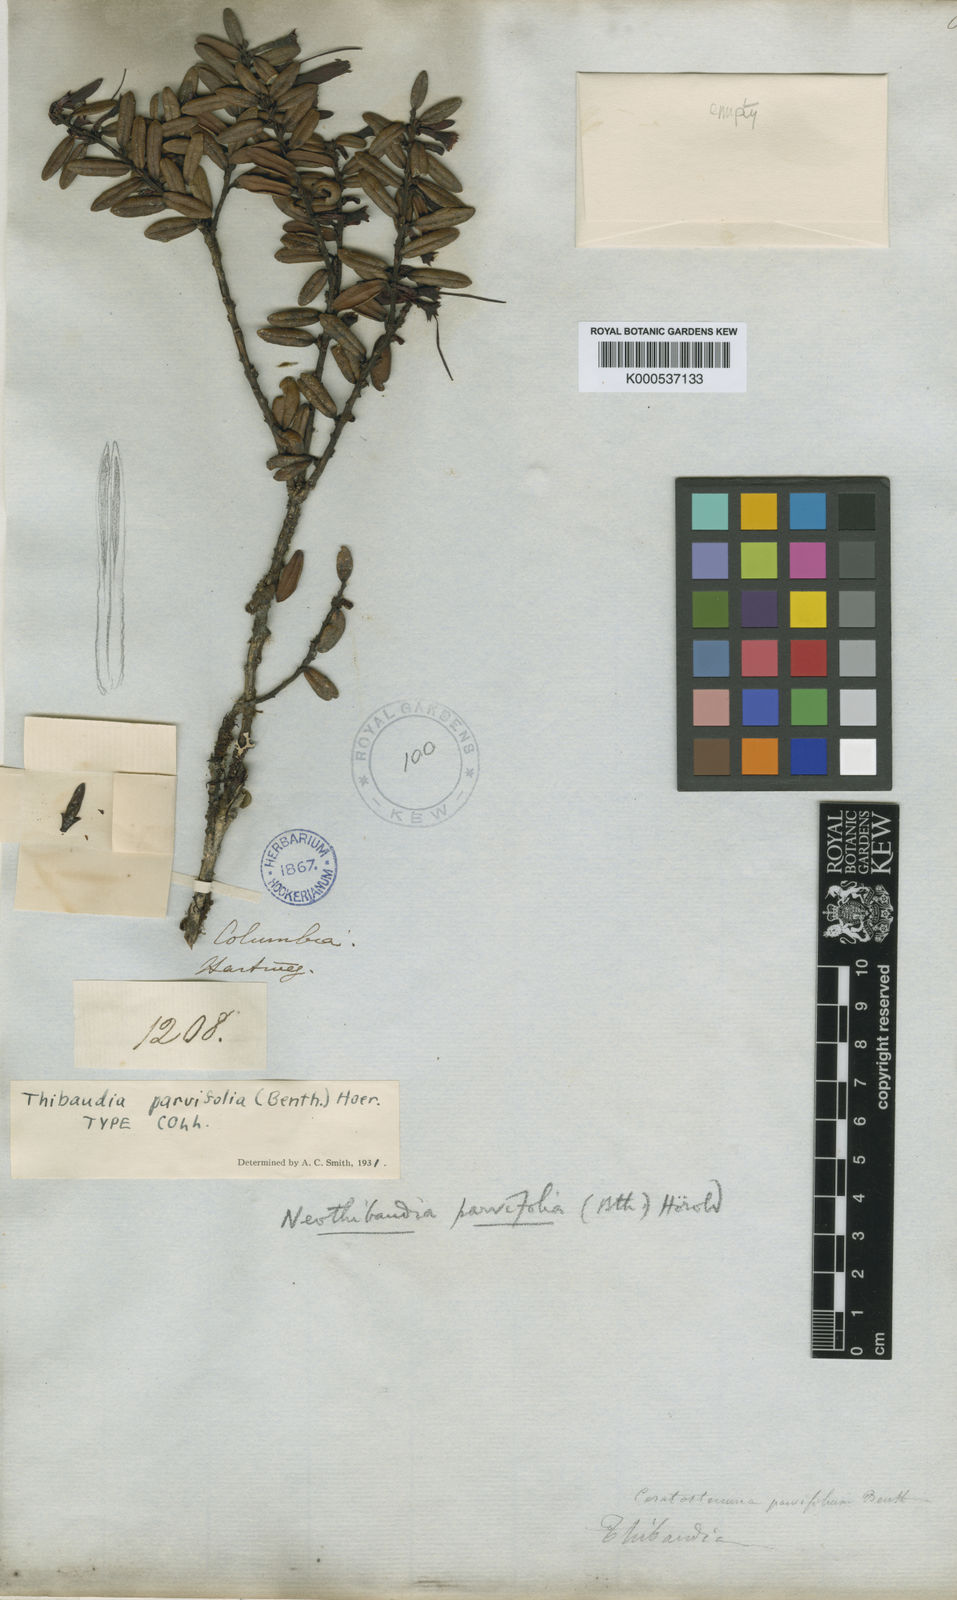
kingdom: Plantae
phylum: Tracheophyta
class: Magnoliopsida
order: Ericales
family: Ericaceae
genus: Thibaudia
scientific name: Thibaudia parvifolia
